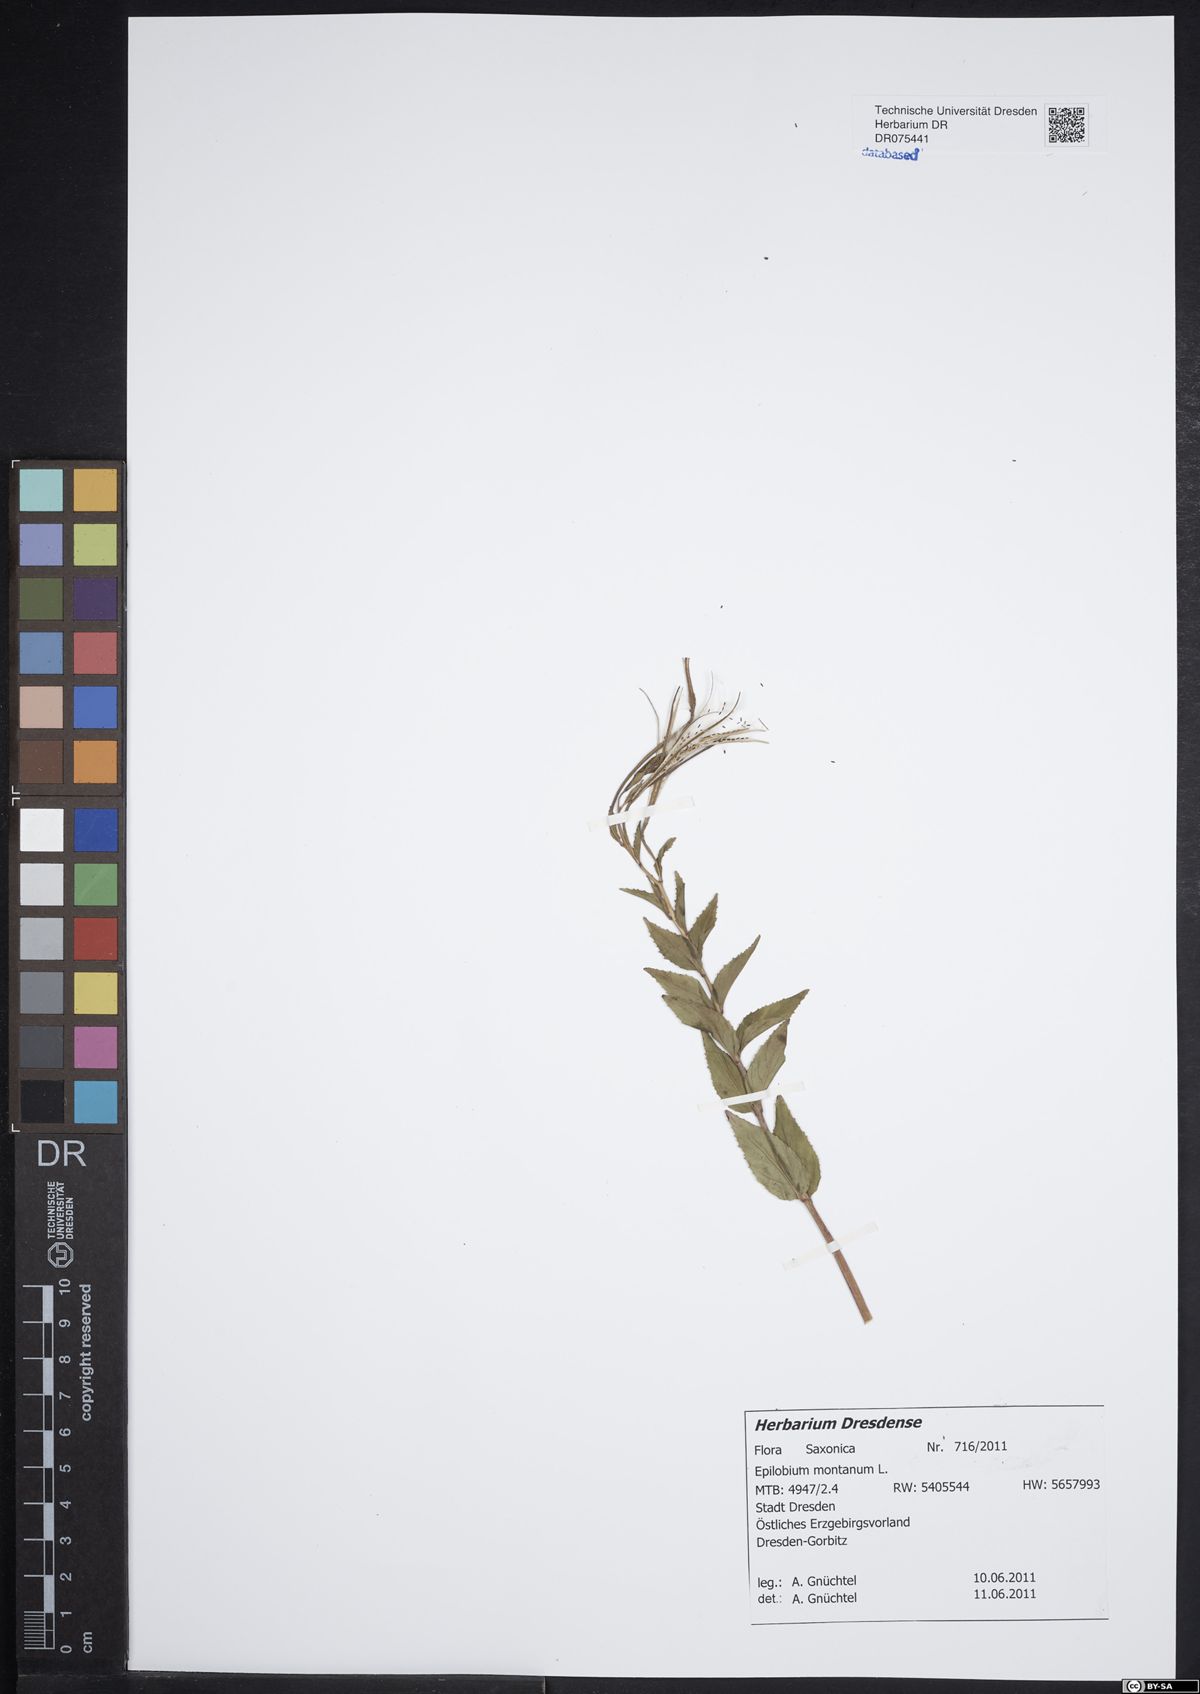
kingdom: Plantae
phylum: Tracheophyta
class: Magnoliopsida
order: Myrtales
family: Onagraceae
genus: Epilobium
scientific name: Epilobium montanum
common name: Broad-leaved willowherb
